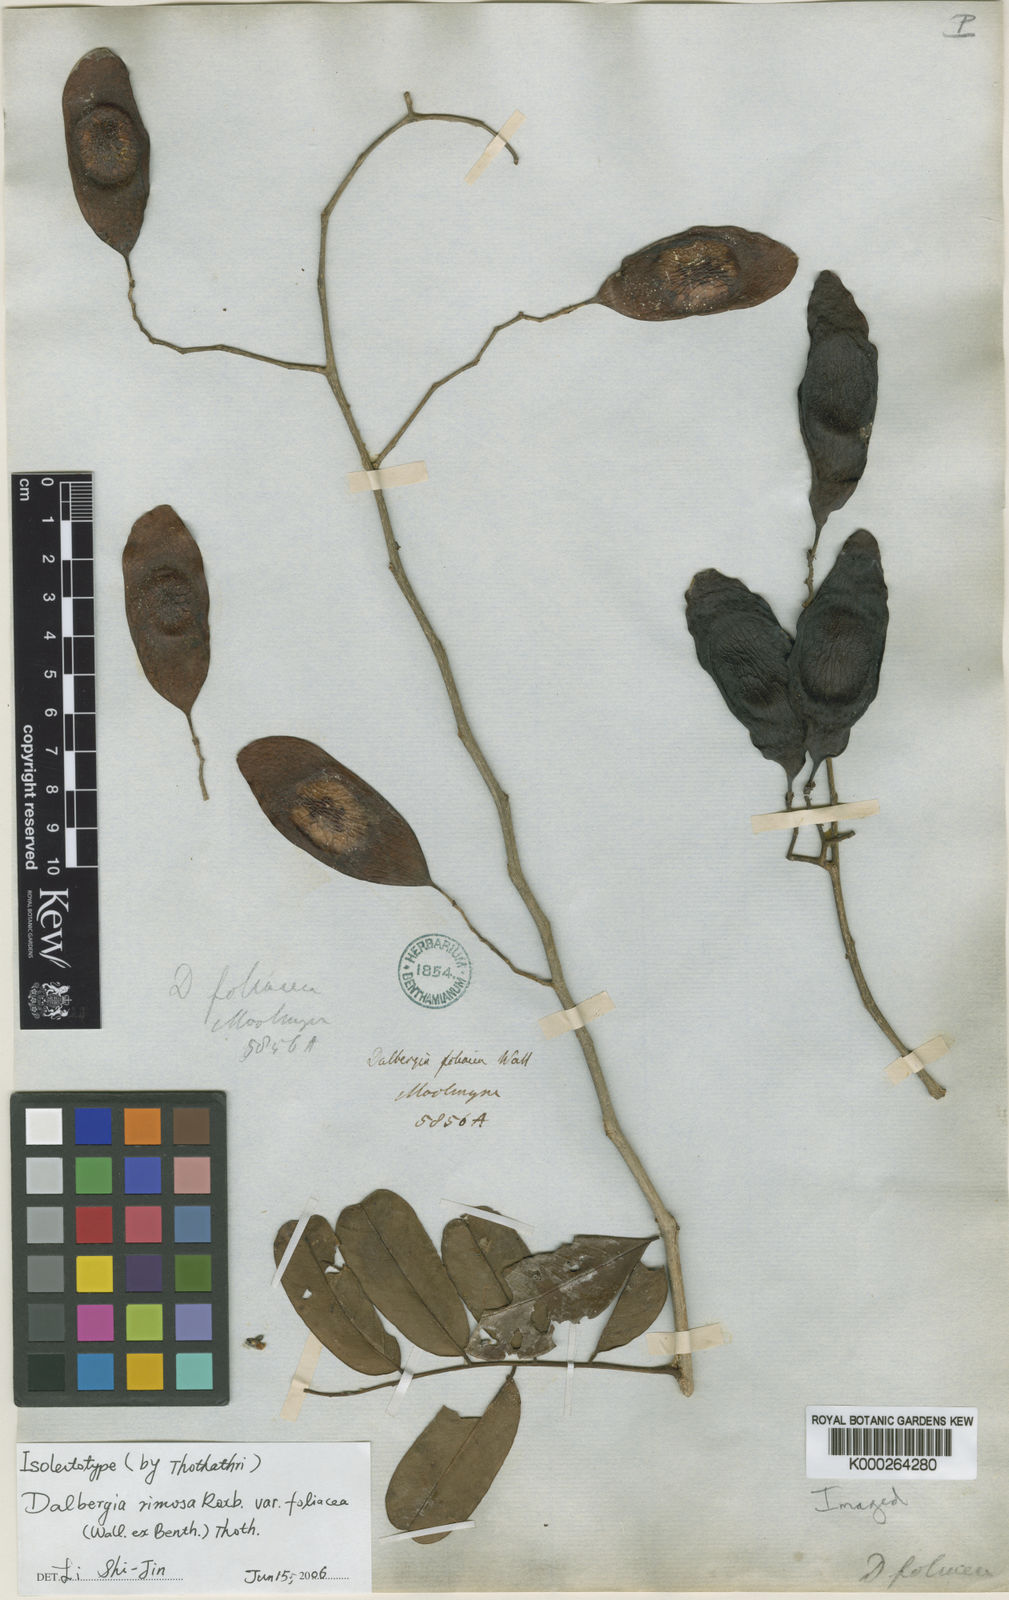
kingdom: Plantae
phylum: Tracheophyta
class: Magnoliopsida
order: Fabales
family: Fabaceae
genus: Dalbergia
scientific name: Dalbergia
